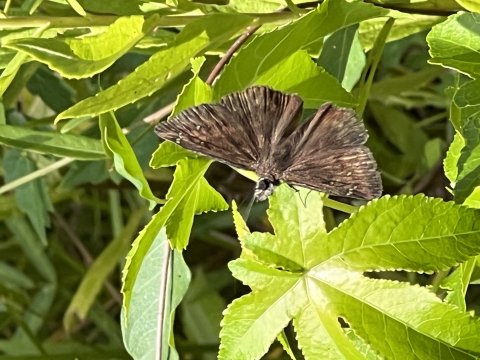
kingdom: Animalia
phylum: Arthropoda
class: Insecta
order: Lepidoptera
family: Hesperiidae
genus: Gesta
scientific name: Gesta
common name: Horace's Duskywing
